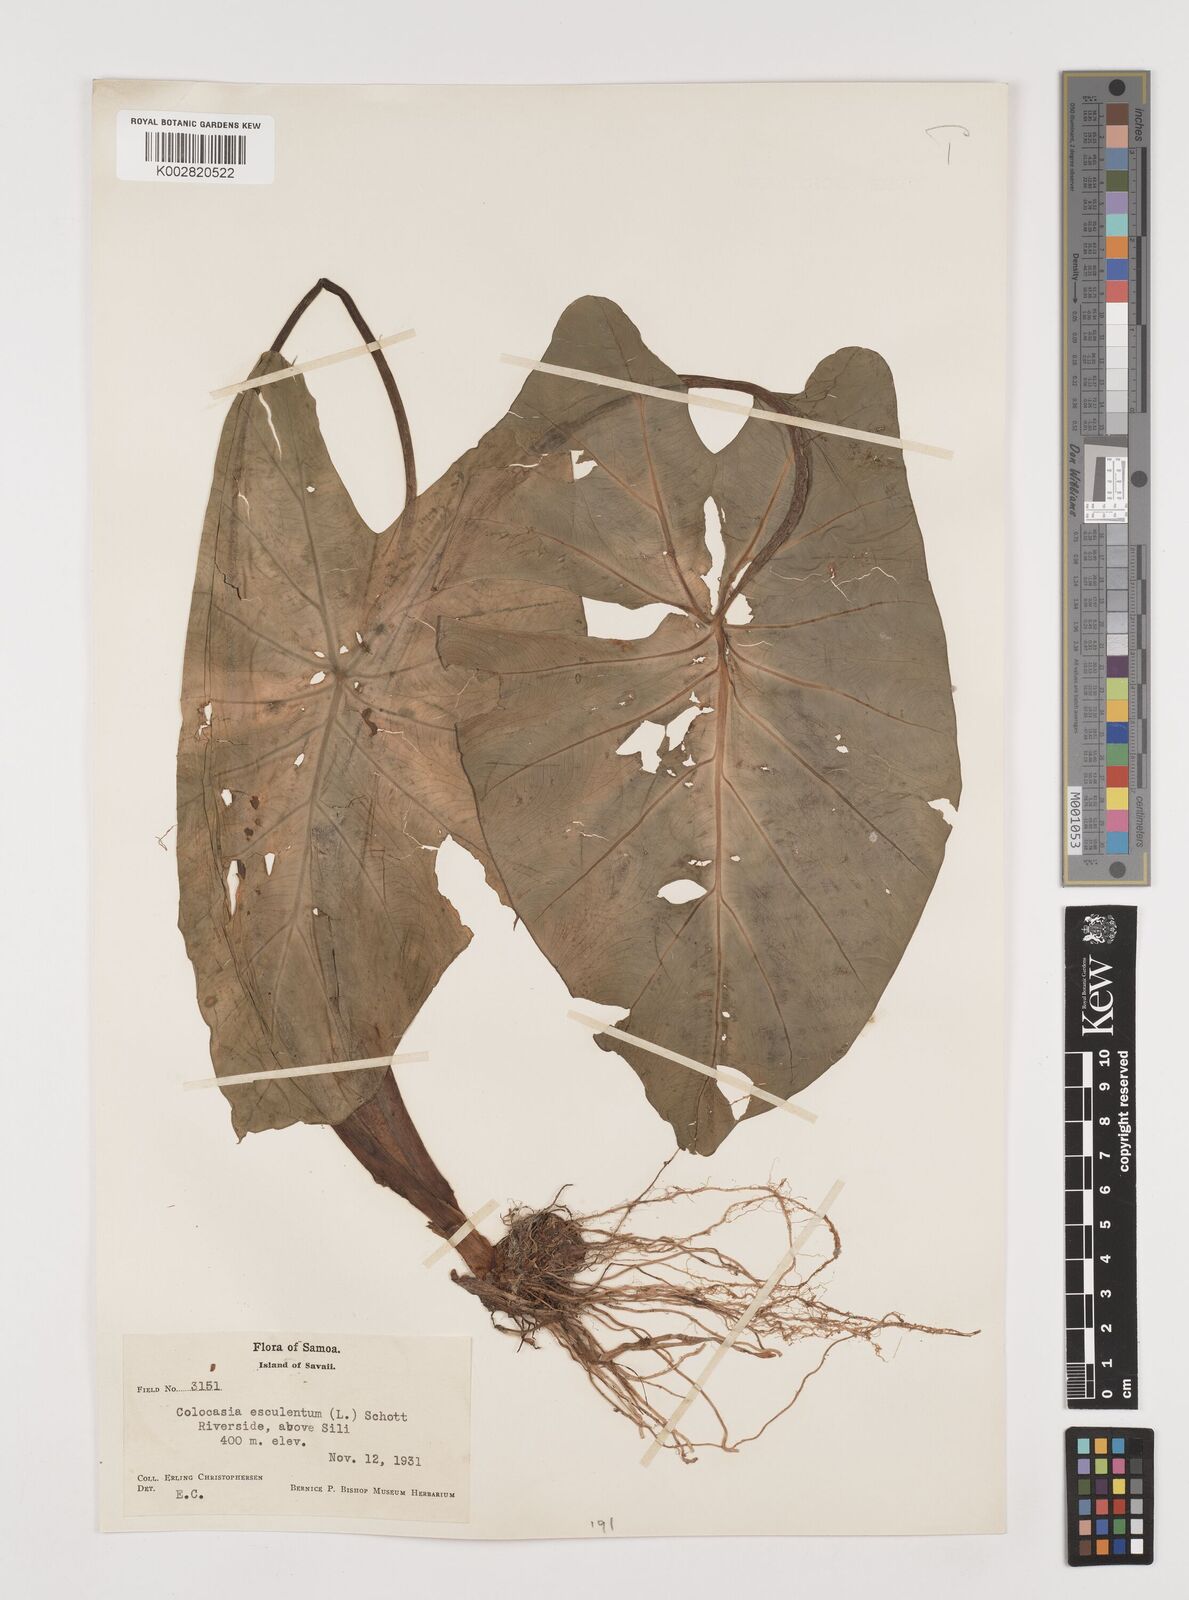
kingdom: Plantae
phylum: Tracheophyta
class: Liliopsida
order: Alismatales
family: Araceae
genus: Colocasia
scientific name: Colocasia esculenta
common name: Taro
